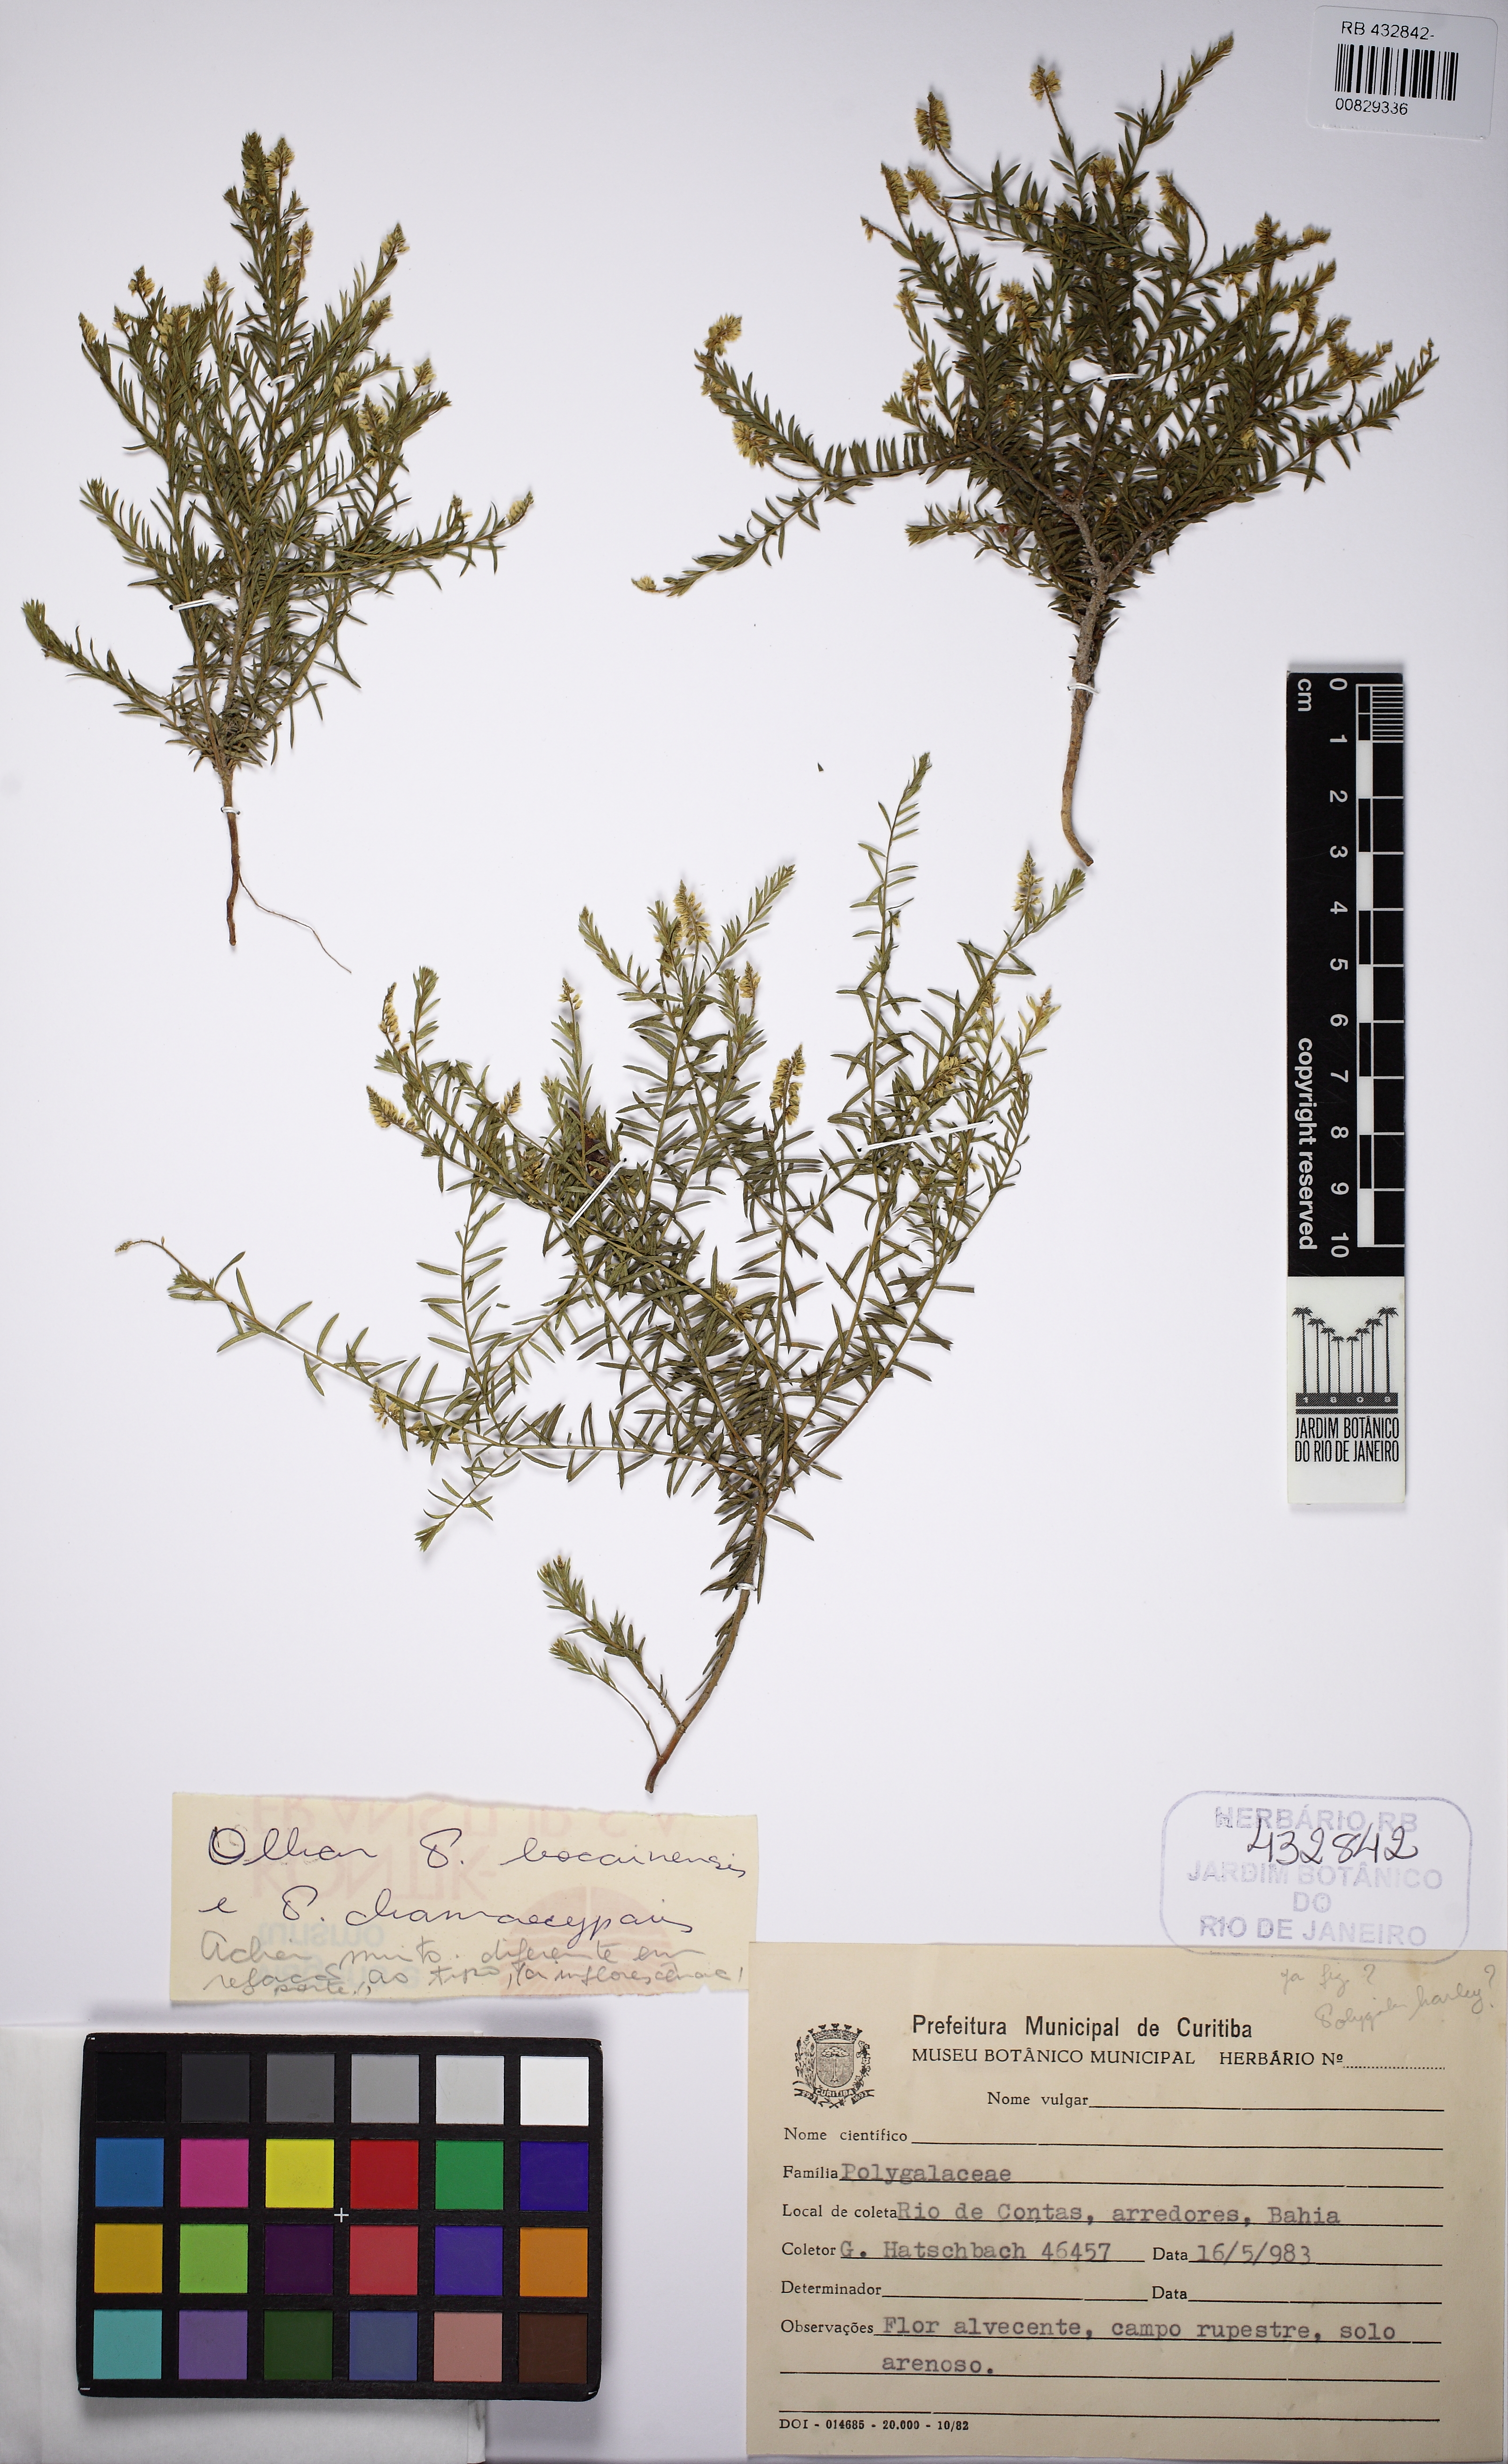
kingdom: Plantae
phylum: Tracheophyta
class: Magnoliopsida
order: Fabales
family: Polygalaceae
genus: Polygala
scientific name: Polygala harleyi
